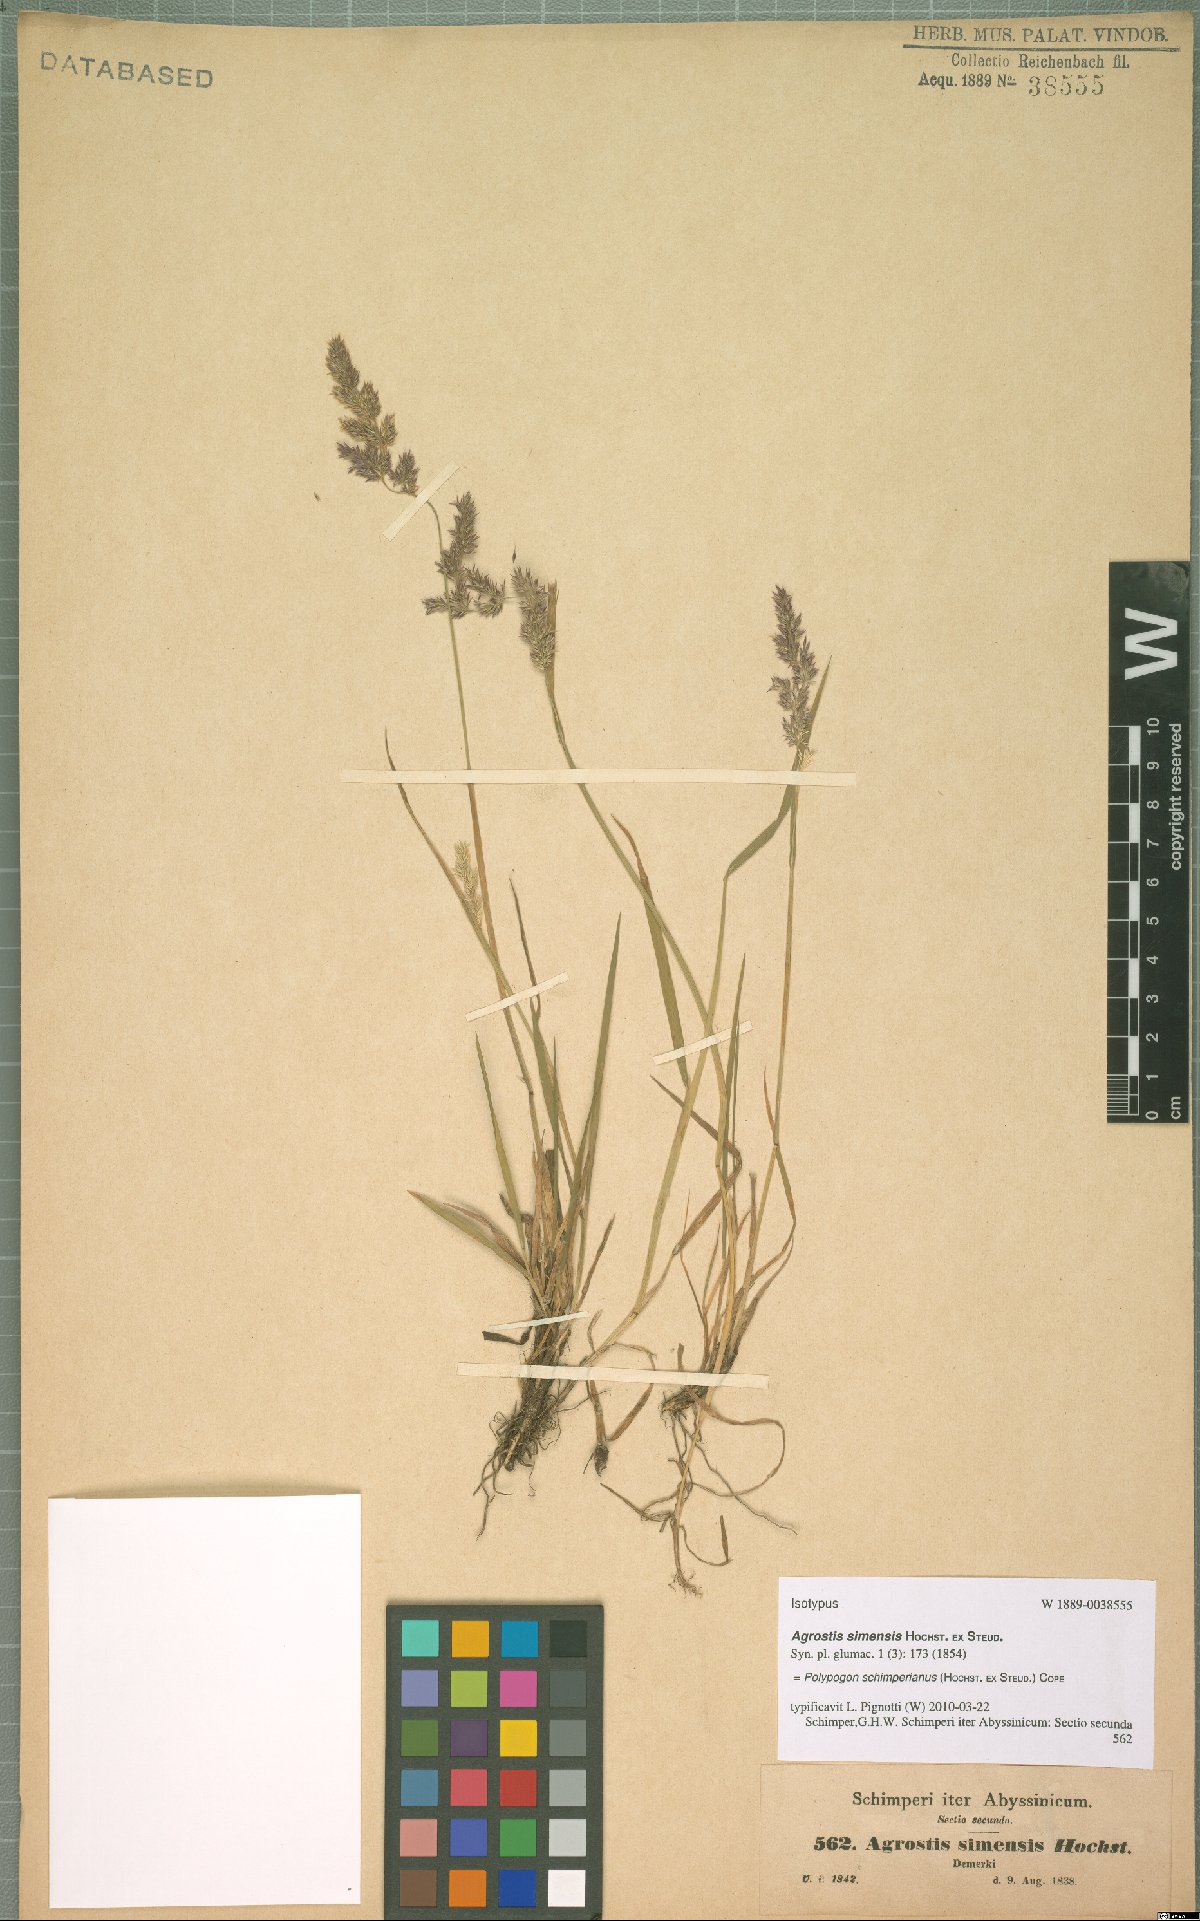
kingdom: Plantae
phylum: Tracheophyta
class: Liliopsida
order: Poales
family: Poaceae
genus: Polypogon
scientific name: Polypogon schimperianus
